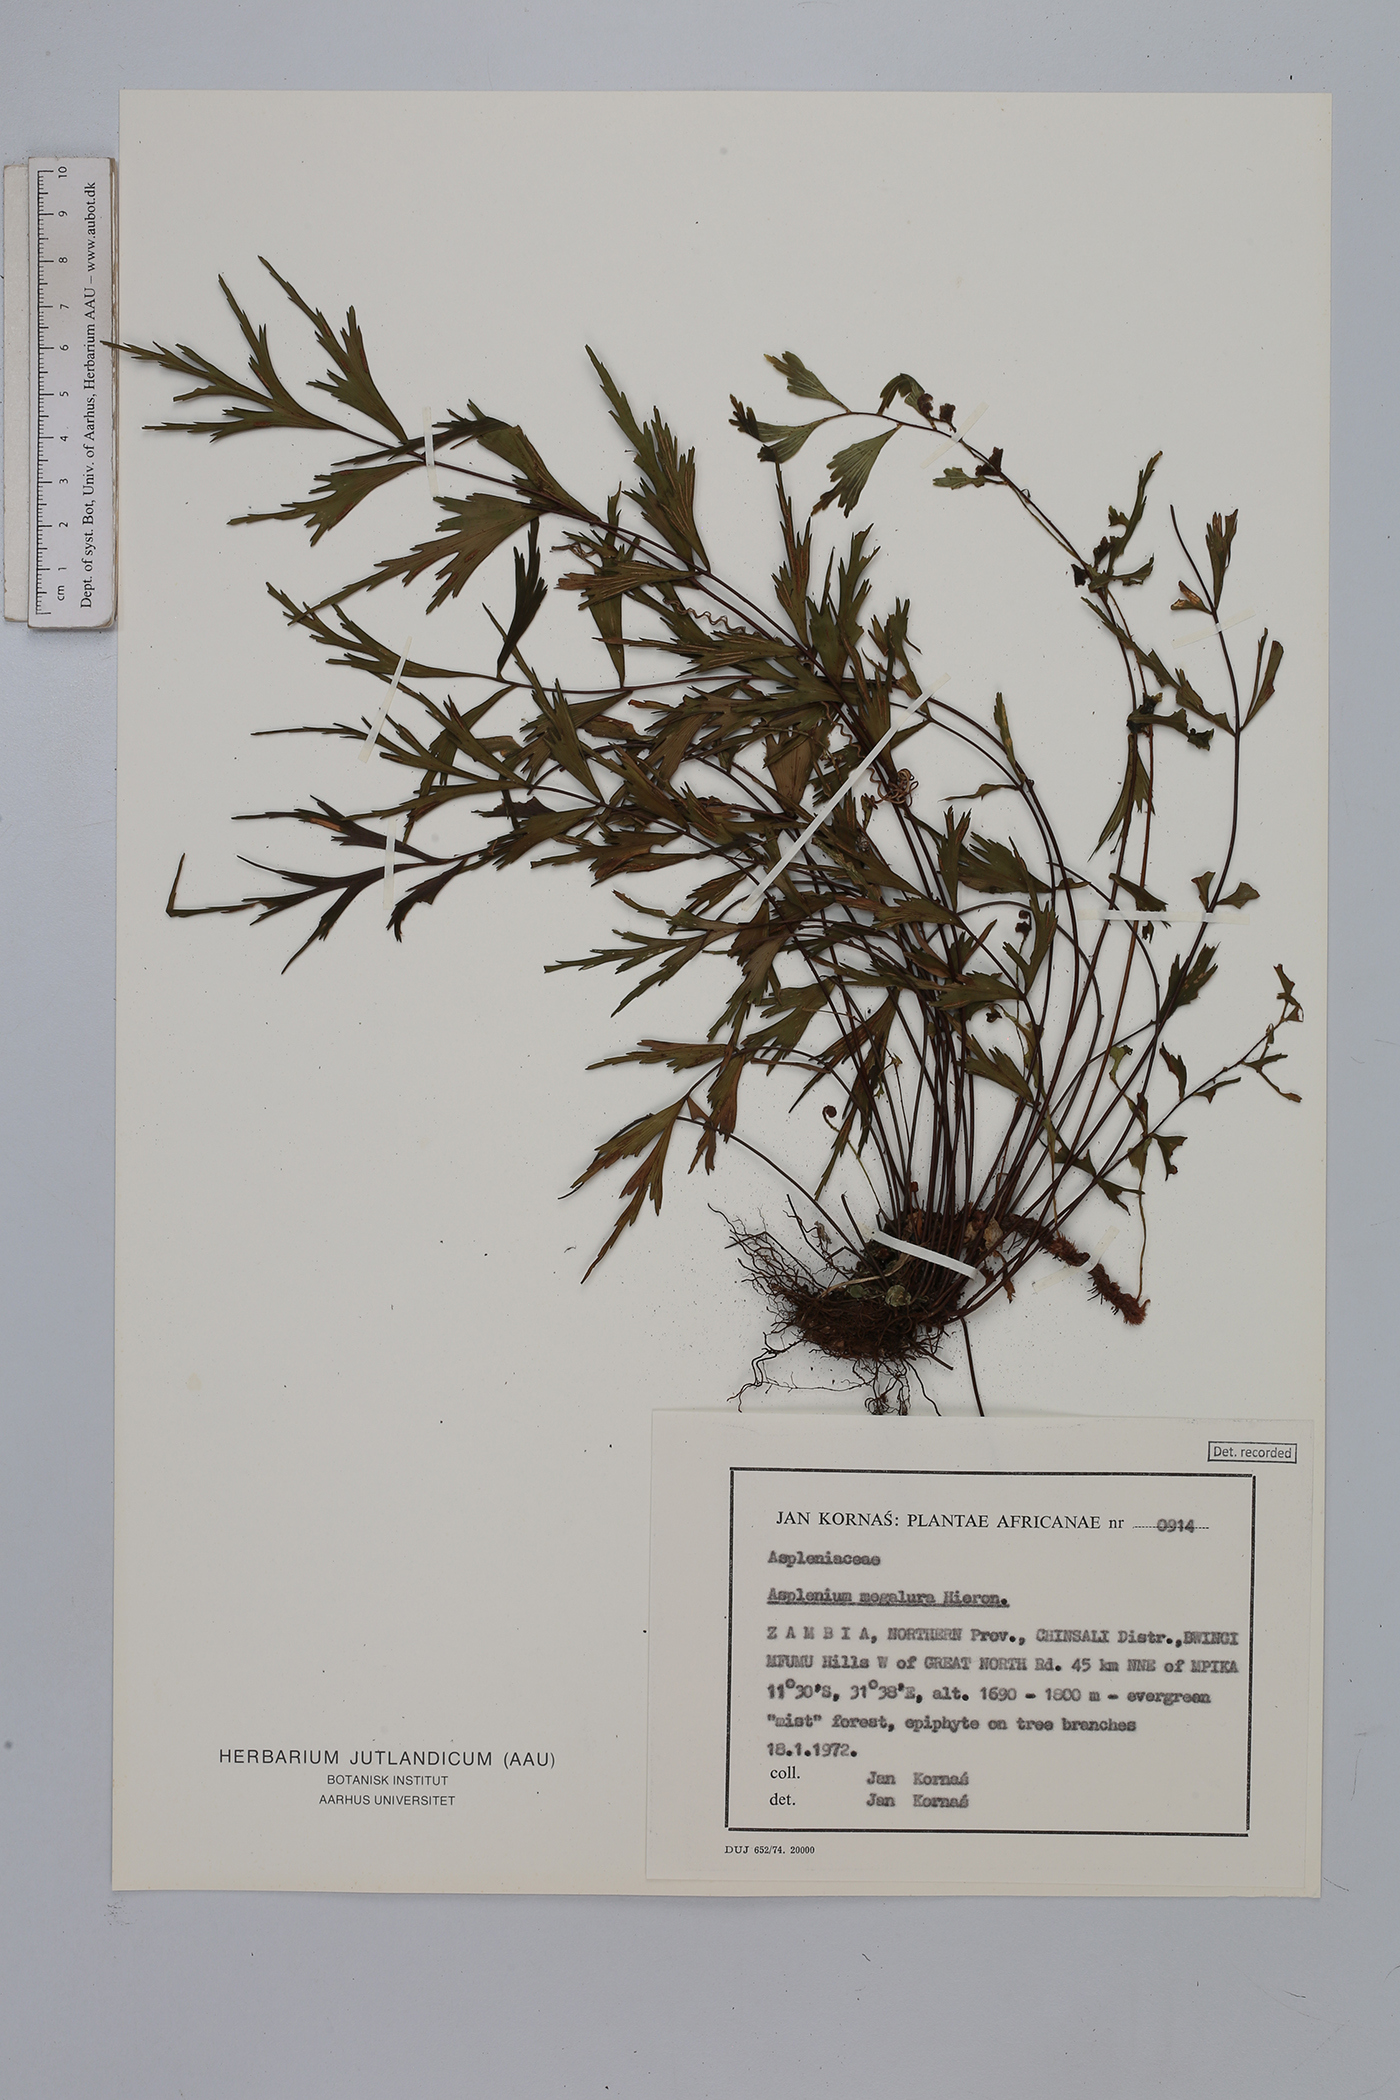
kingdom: Plantae
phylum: Tracheophyta
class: Polypodiopsida
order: Polypodiales
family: Aspleniaceae
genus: Asplenium
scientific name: Asplenium megalura
